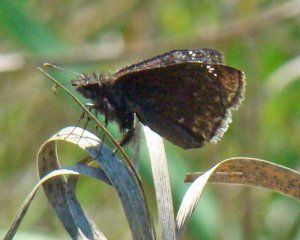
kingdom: Animalia
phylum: Arthropoda
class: Insecta
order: Lepidoptera
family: Hesperiidae
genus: Gesta
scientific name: Gesta
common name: Wild Indigo Duskywing
